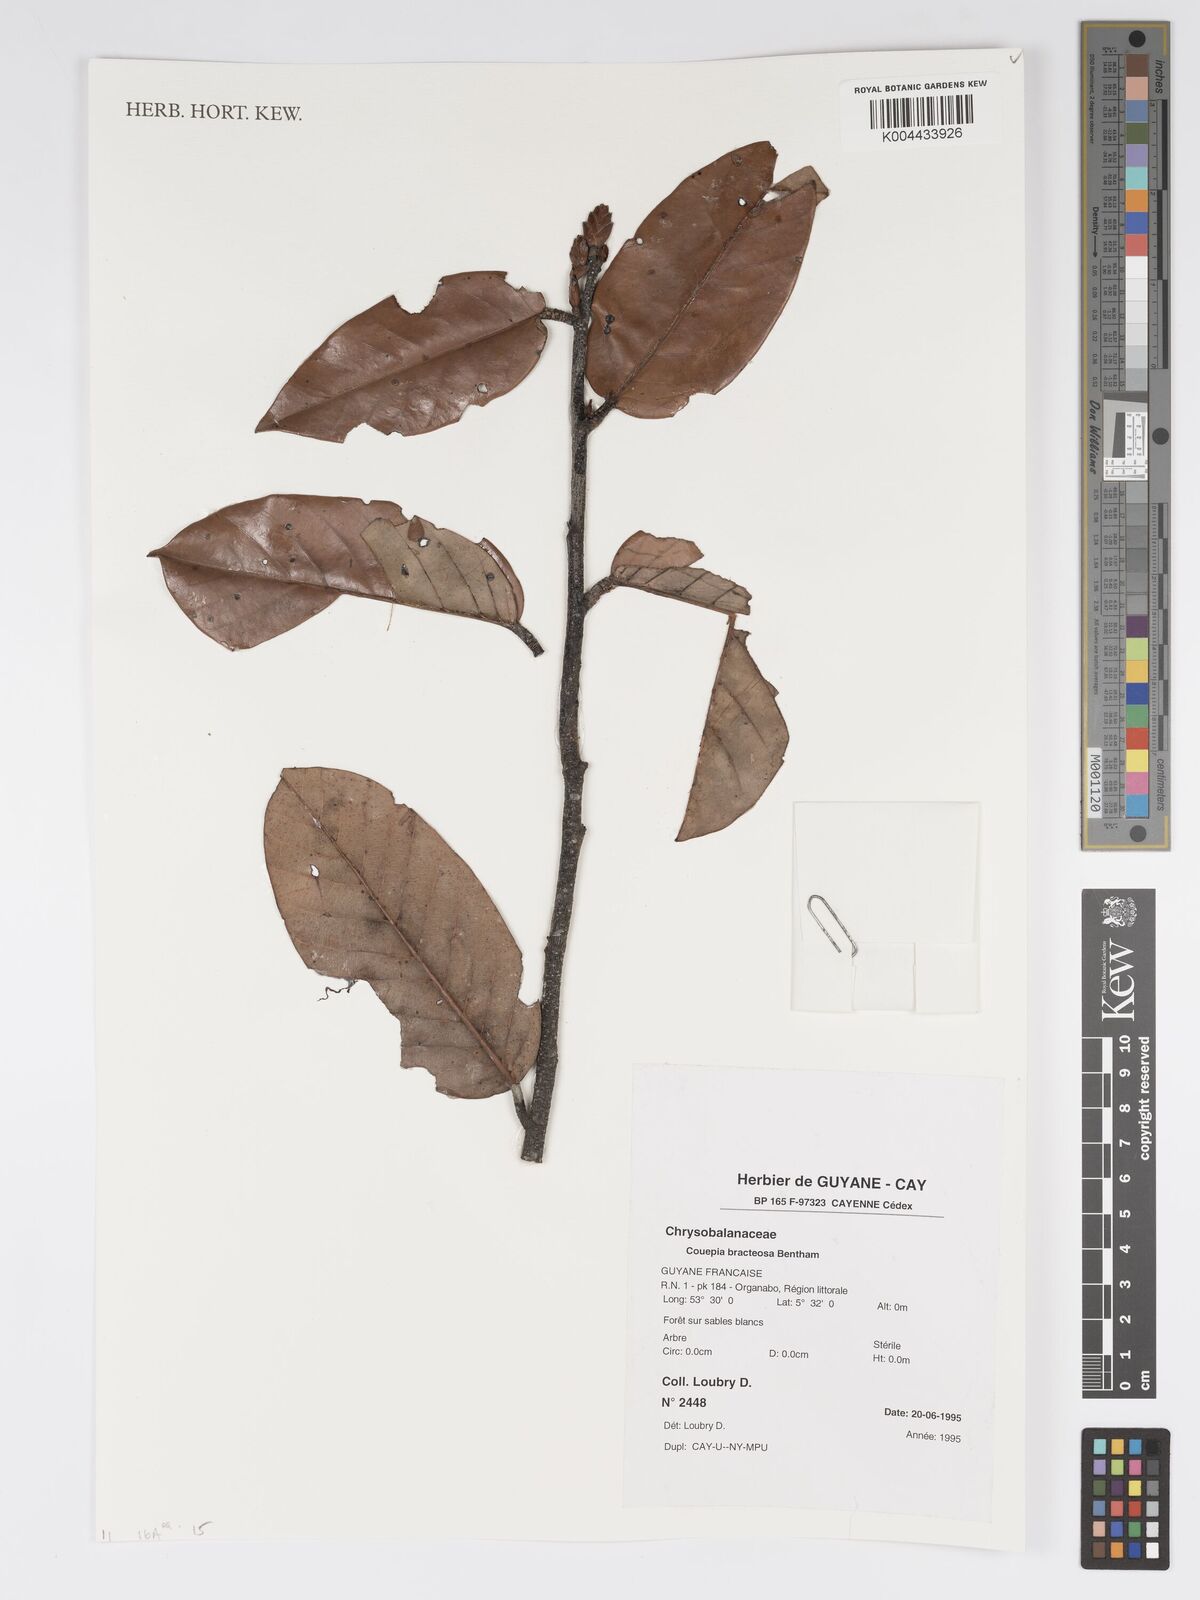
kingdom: Plantae
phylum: Tracheophyta
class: Magnoliopsida
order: Malpighiales
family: Chrysobalanaceae
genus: Couepia
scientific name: Couepia bracteosa
